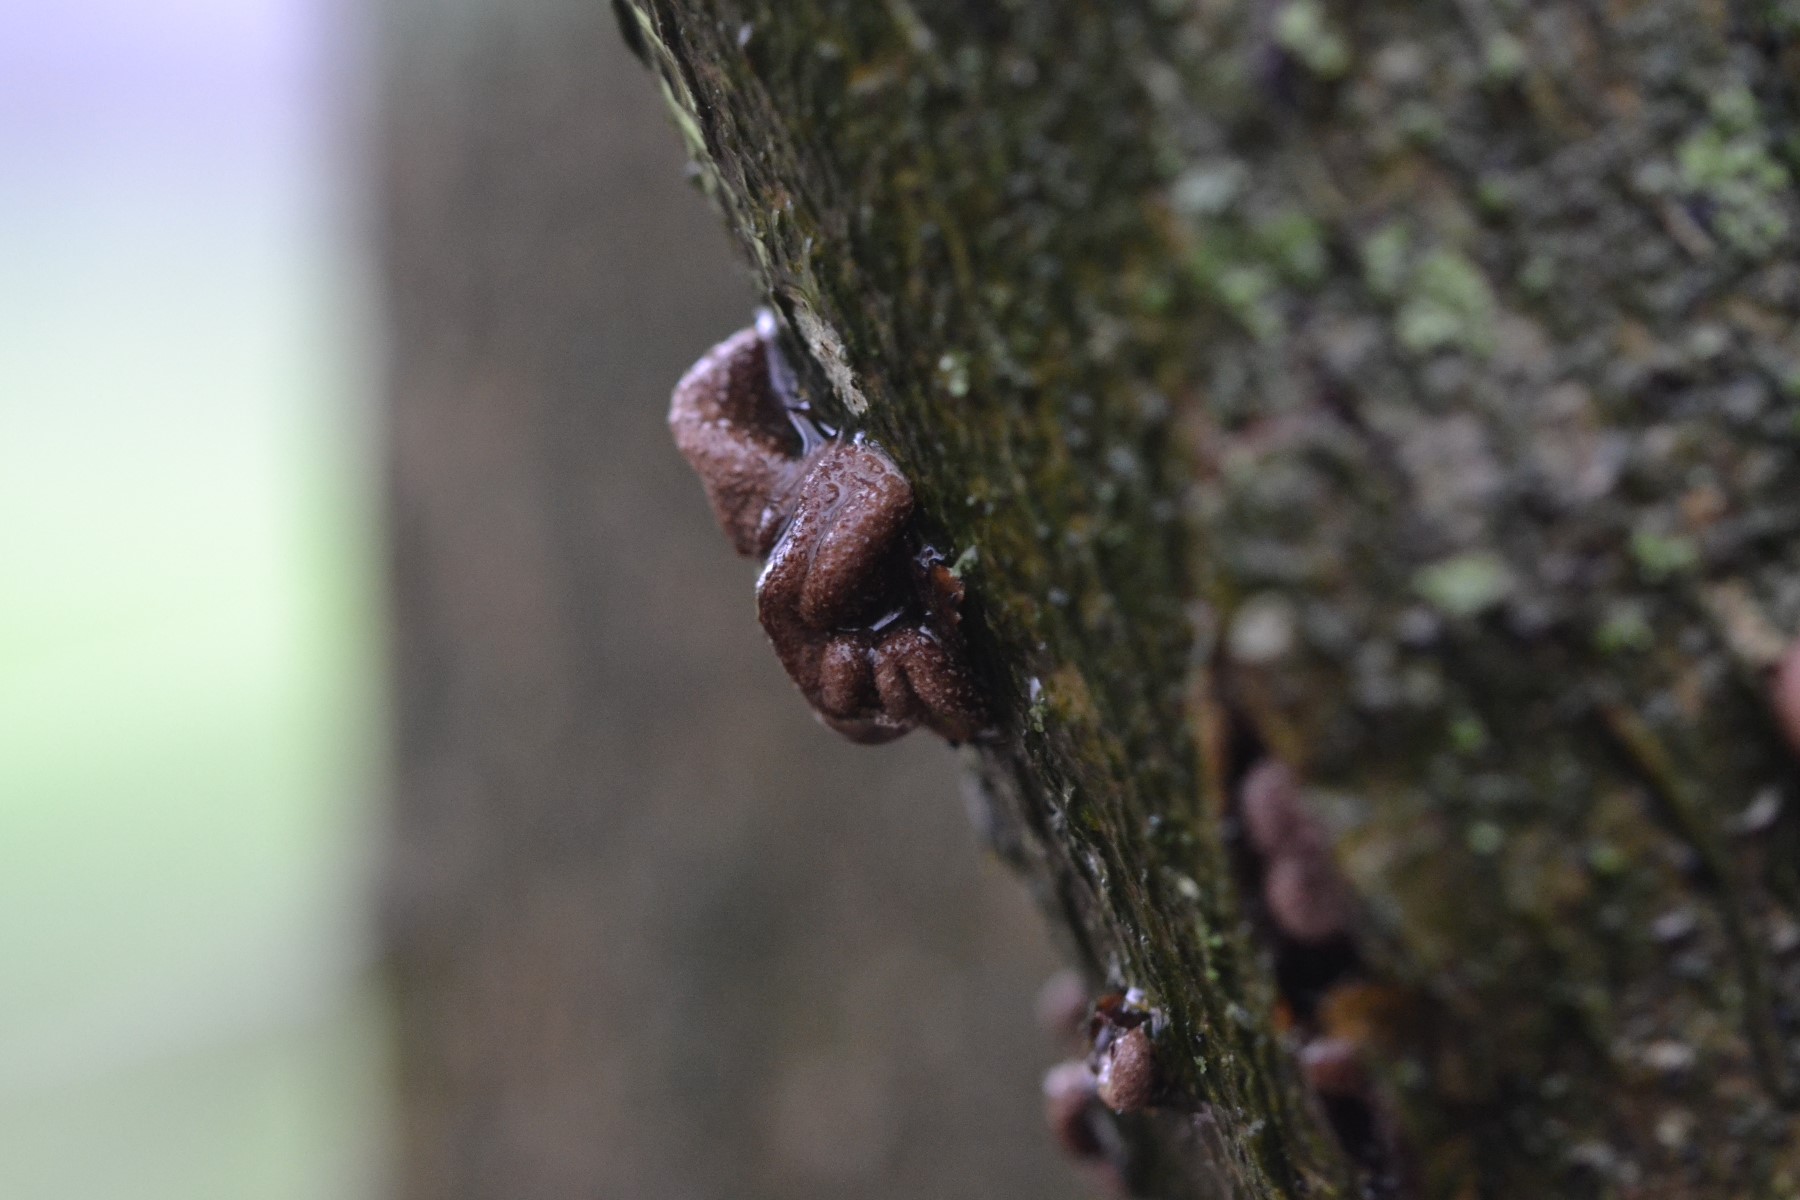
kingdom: Fungi
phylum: Ascomycota
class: Leotiomycetes
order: Helotiales
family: Cenangiaceae
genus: Encoelia
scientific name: Encoelia furfuracea
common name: hassel-læderskive
